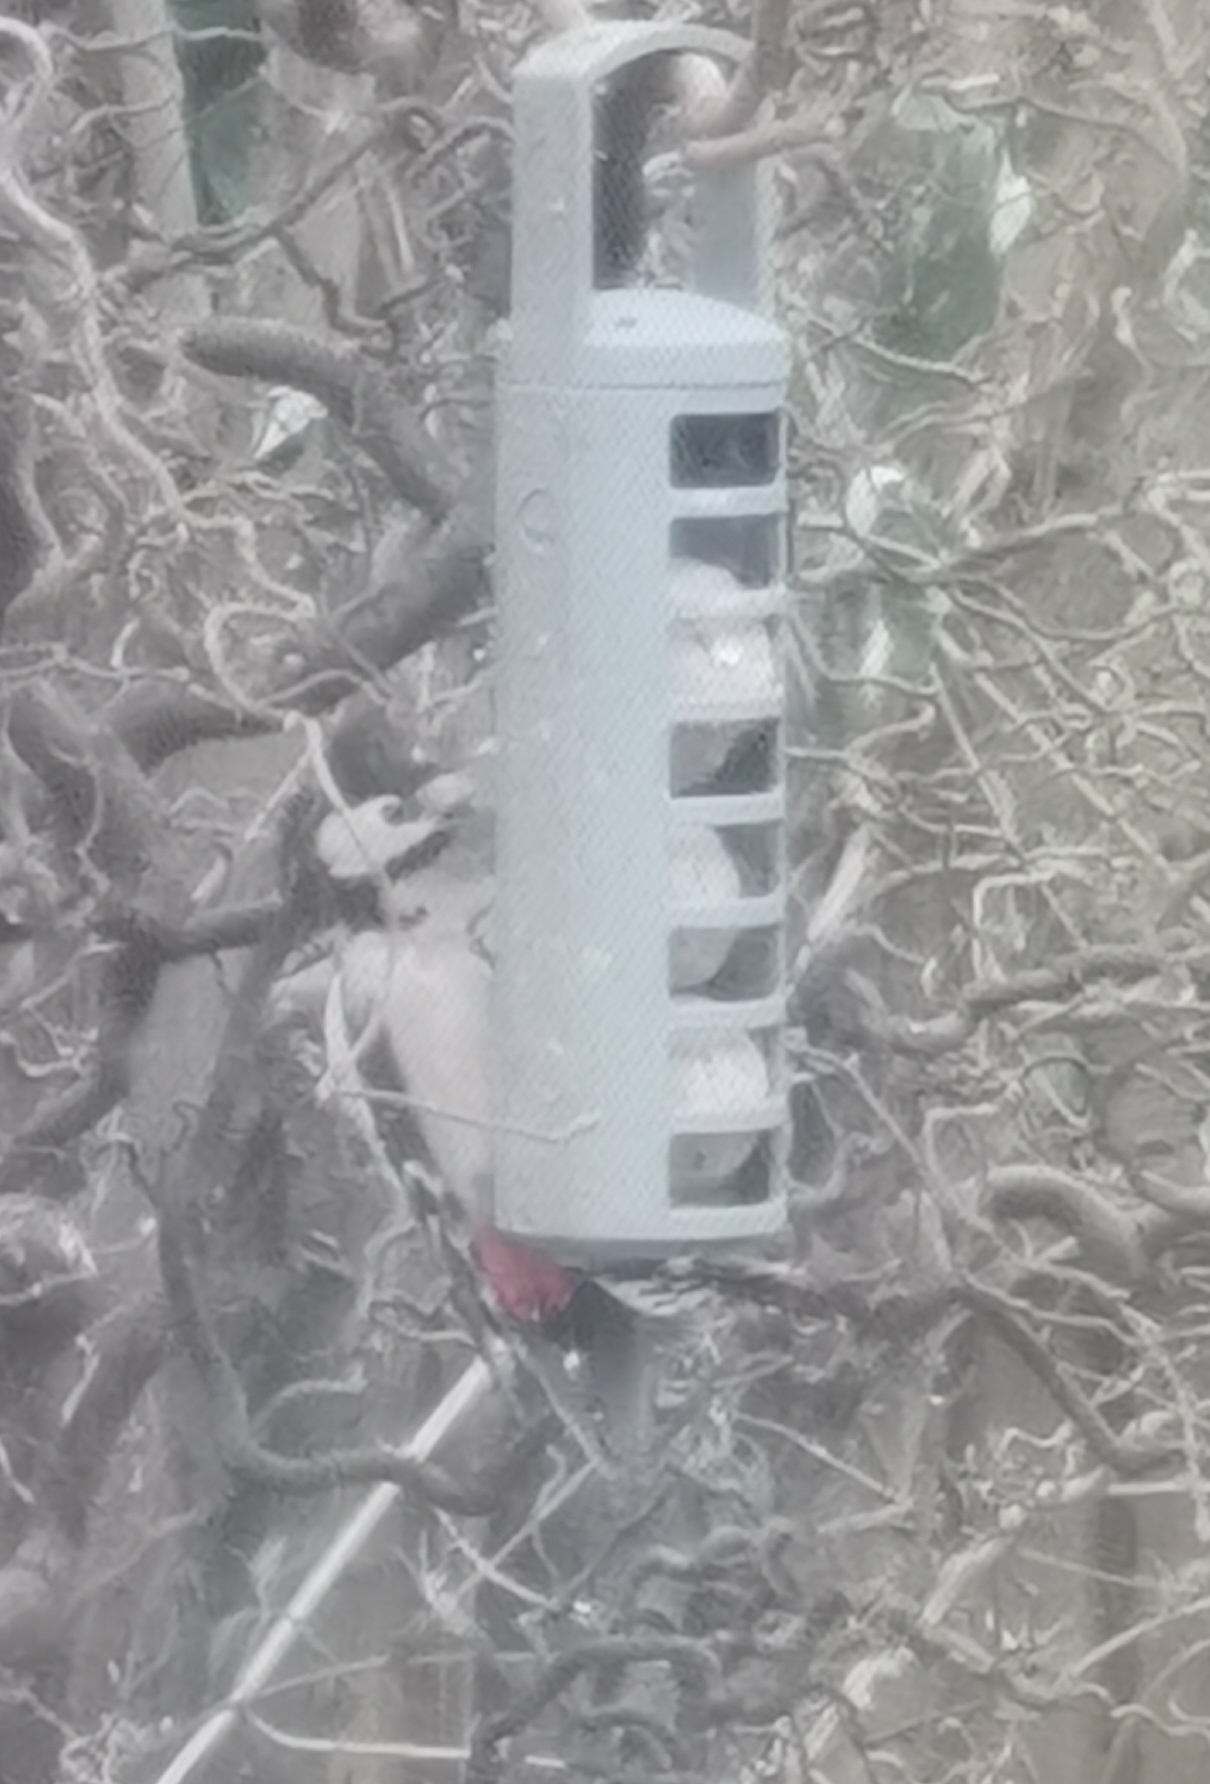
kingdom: Animalia
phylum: Chordata
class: Aves
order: Piciformes
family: Picidae
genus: Dendrocopos
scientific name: Dendrocopos major
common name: Stor flagspætte
